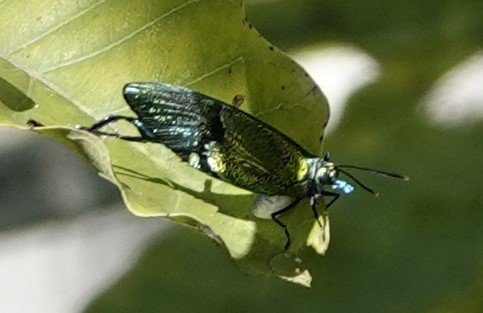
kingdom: Animalia
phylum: Arthropoda
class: Insecta
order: Lepidoptera
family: Lycaenidae
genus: Arcas
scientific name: Arcas cypria
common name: Mexican Arcas
